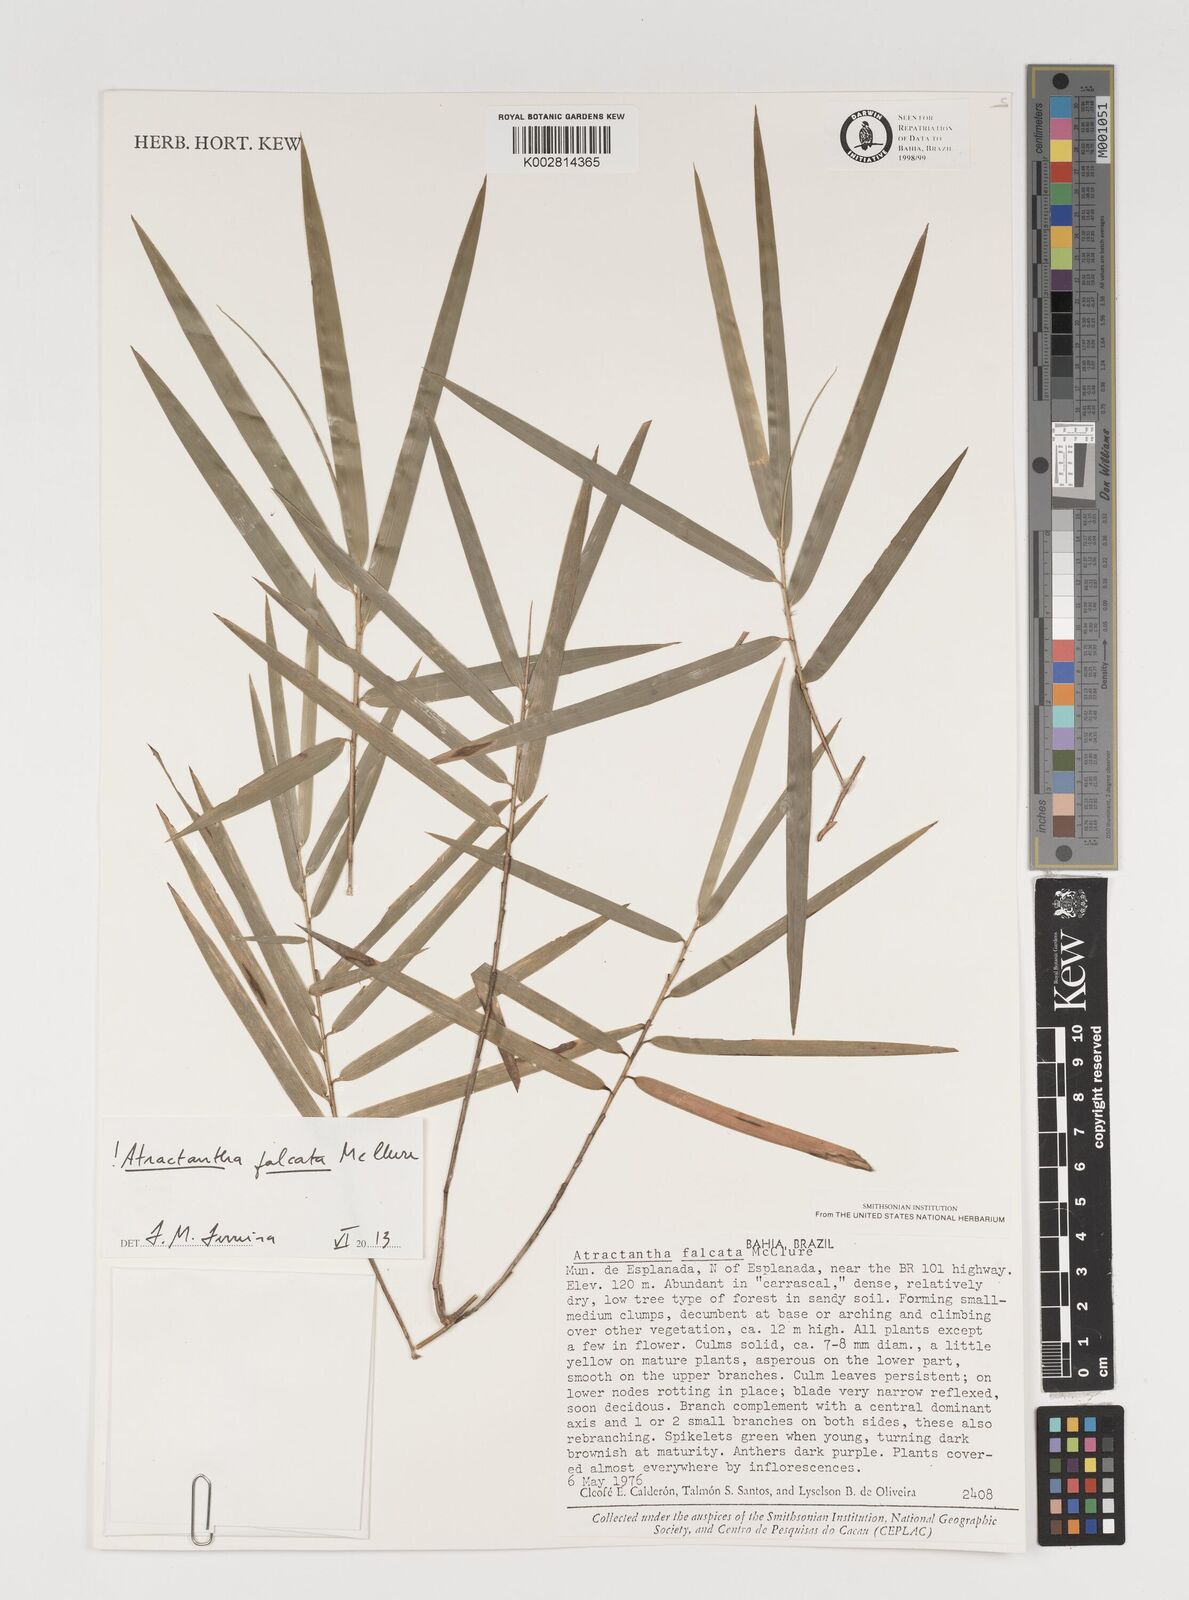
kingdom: Plantae
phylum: Tracheophyta
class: Liliopsida
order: Poales
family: Poaceae
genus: Atractantha
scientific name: Atractantha falcata
